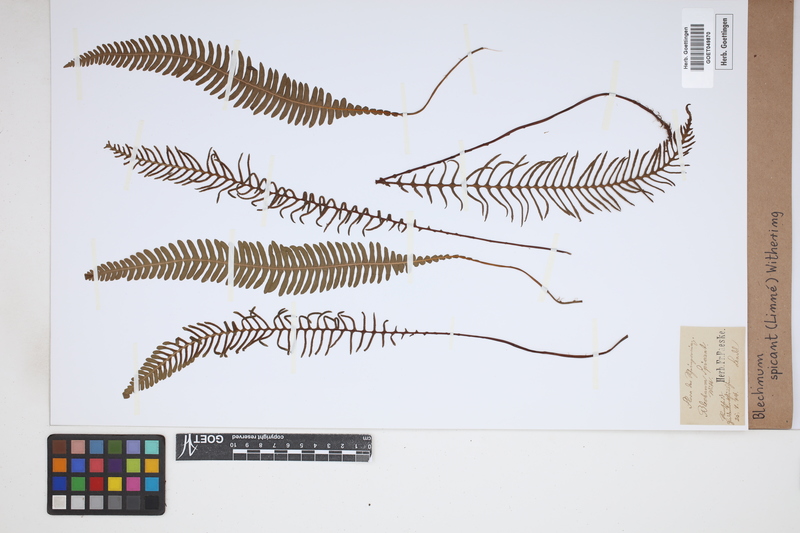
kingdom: Plantae
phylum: Tracheophyta
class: Polypodiopsida
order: Polypodiales
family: Blechnaceae
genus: Struthiopteris
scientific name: Struthiopteris spicant
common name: Deer fern
